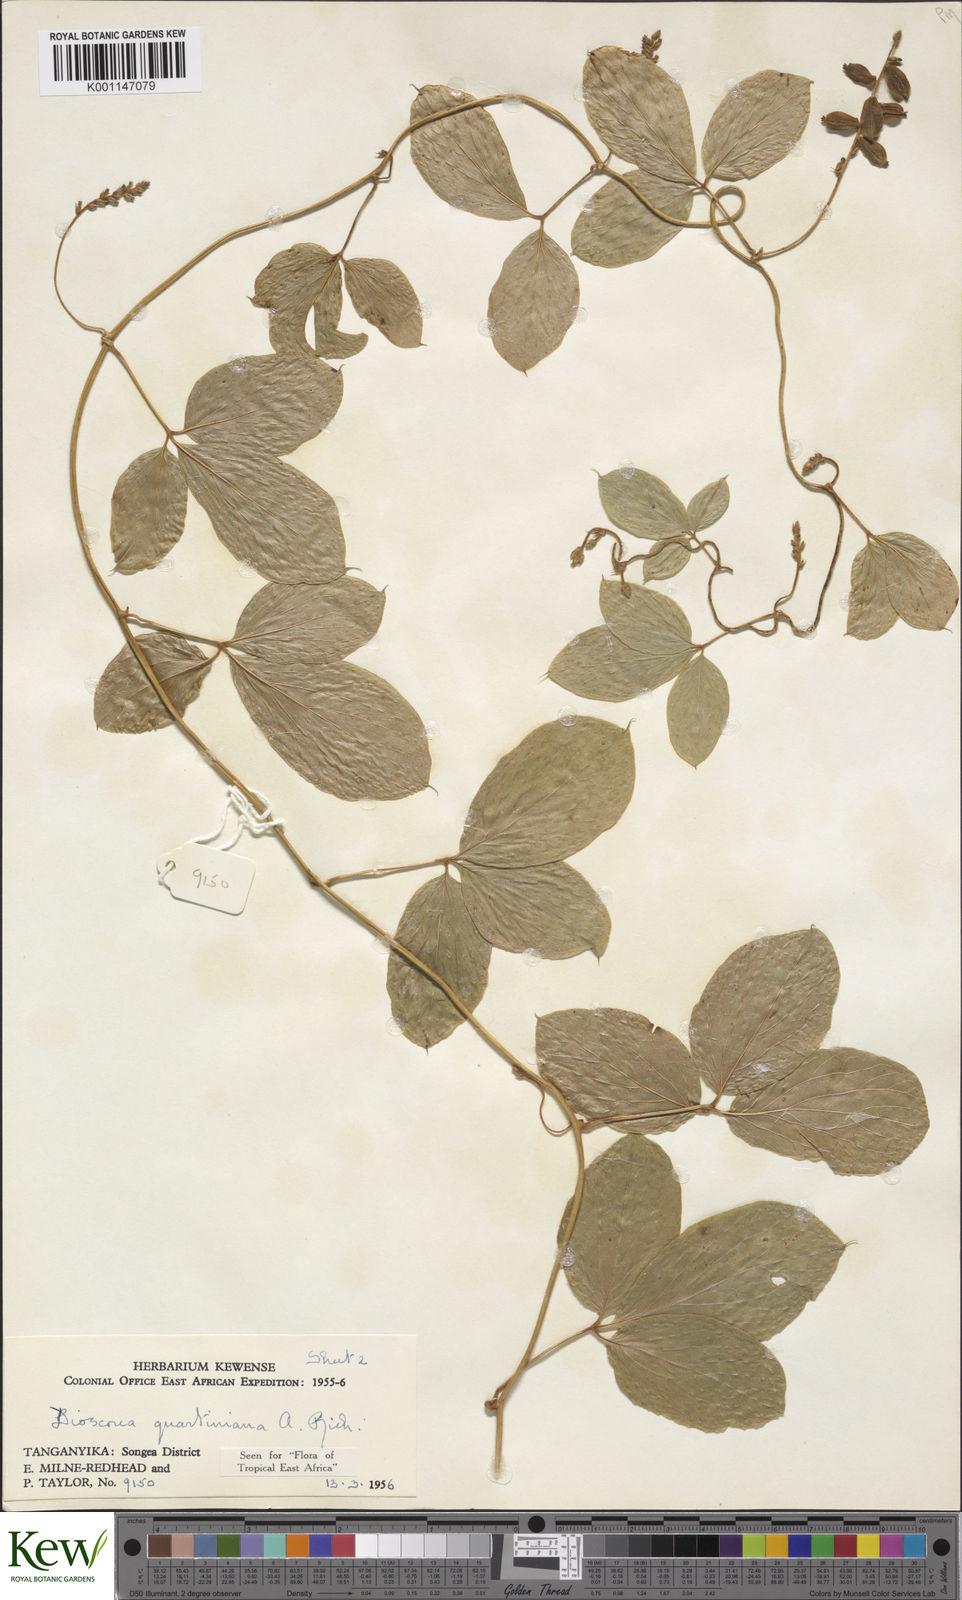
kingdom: Plantae
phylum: Tracheophyta
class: Liliopsida
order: Dioscoreales
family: Dioscoreaceae
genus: Dioscorea
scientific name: Dioscorea quartiniana
